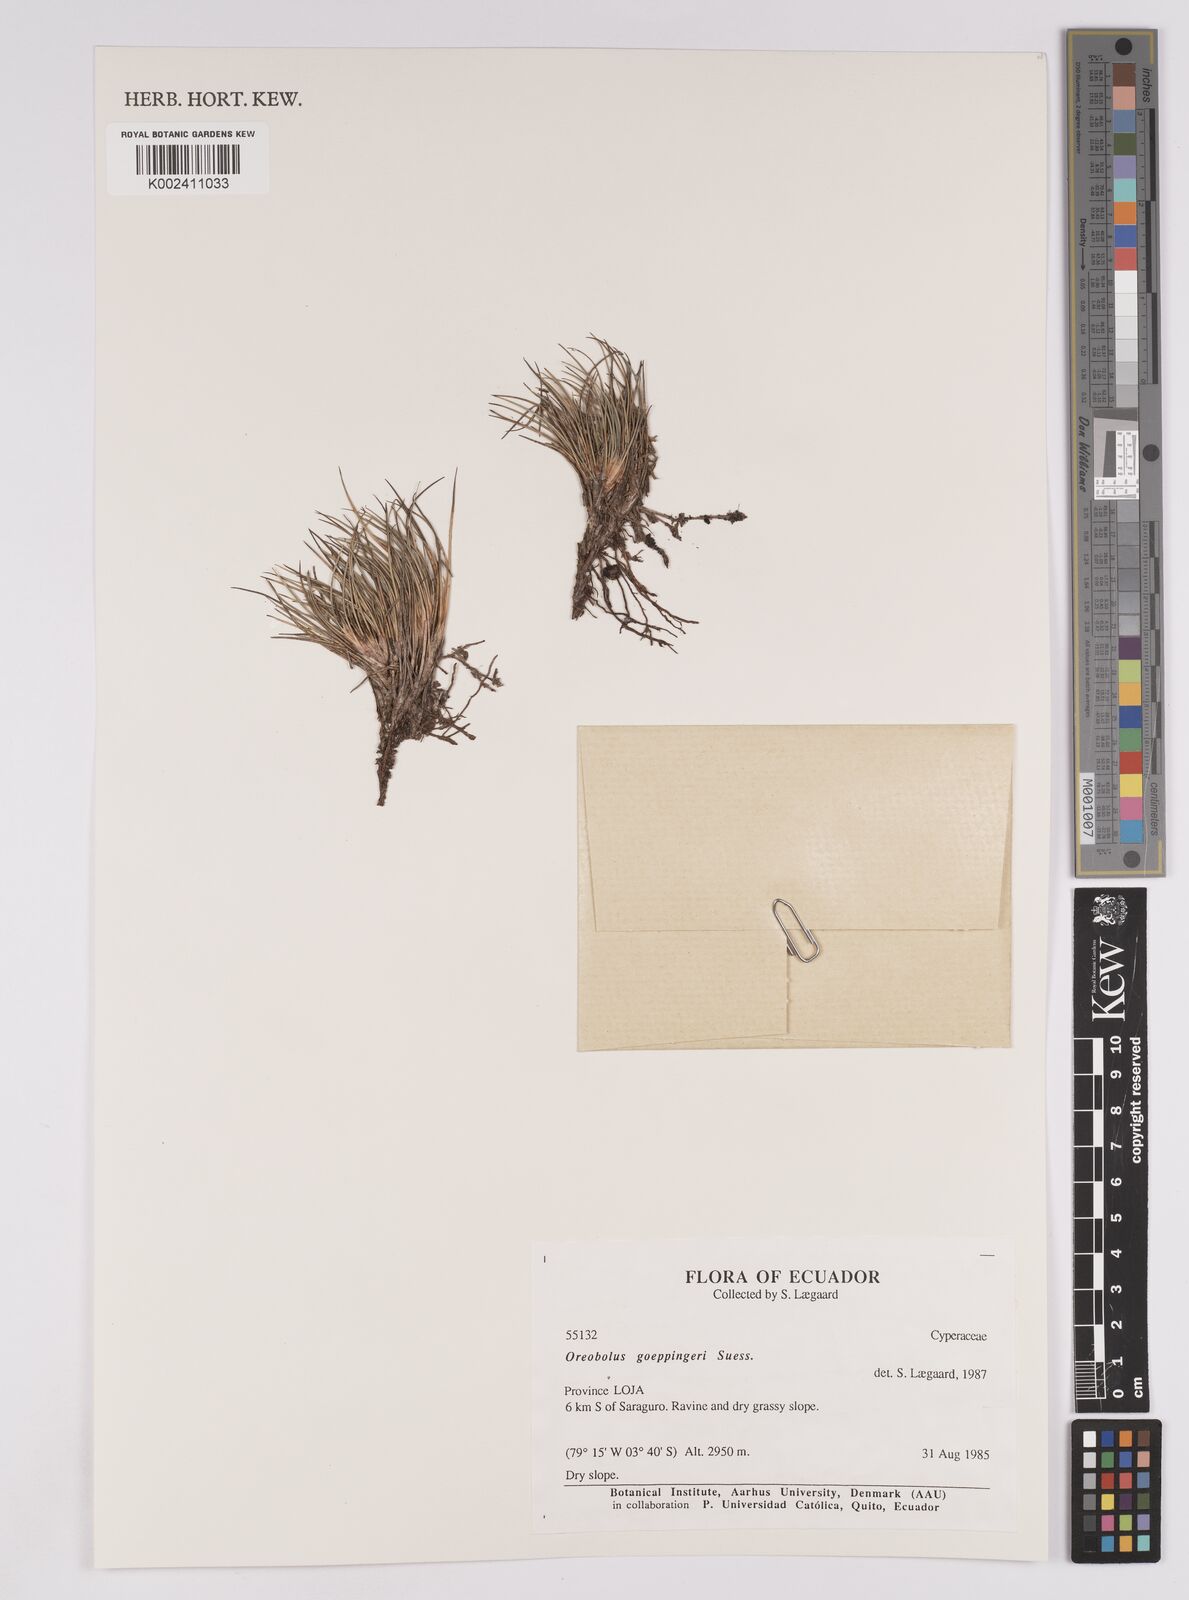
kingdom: Plantae
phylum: Tracheophyta
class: Liliopsida
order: Poales
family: Cyperaceae
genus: Oreobolus
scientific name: Oreobolus goeppingeri
